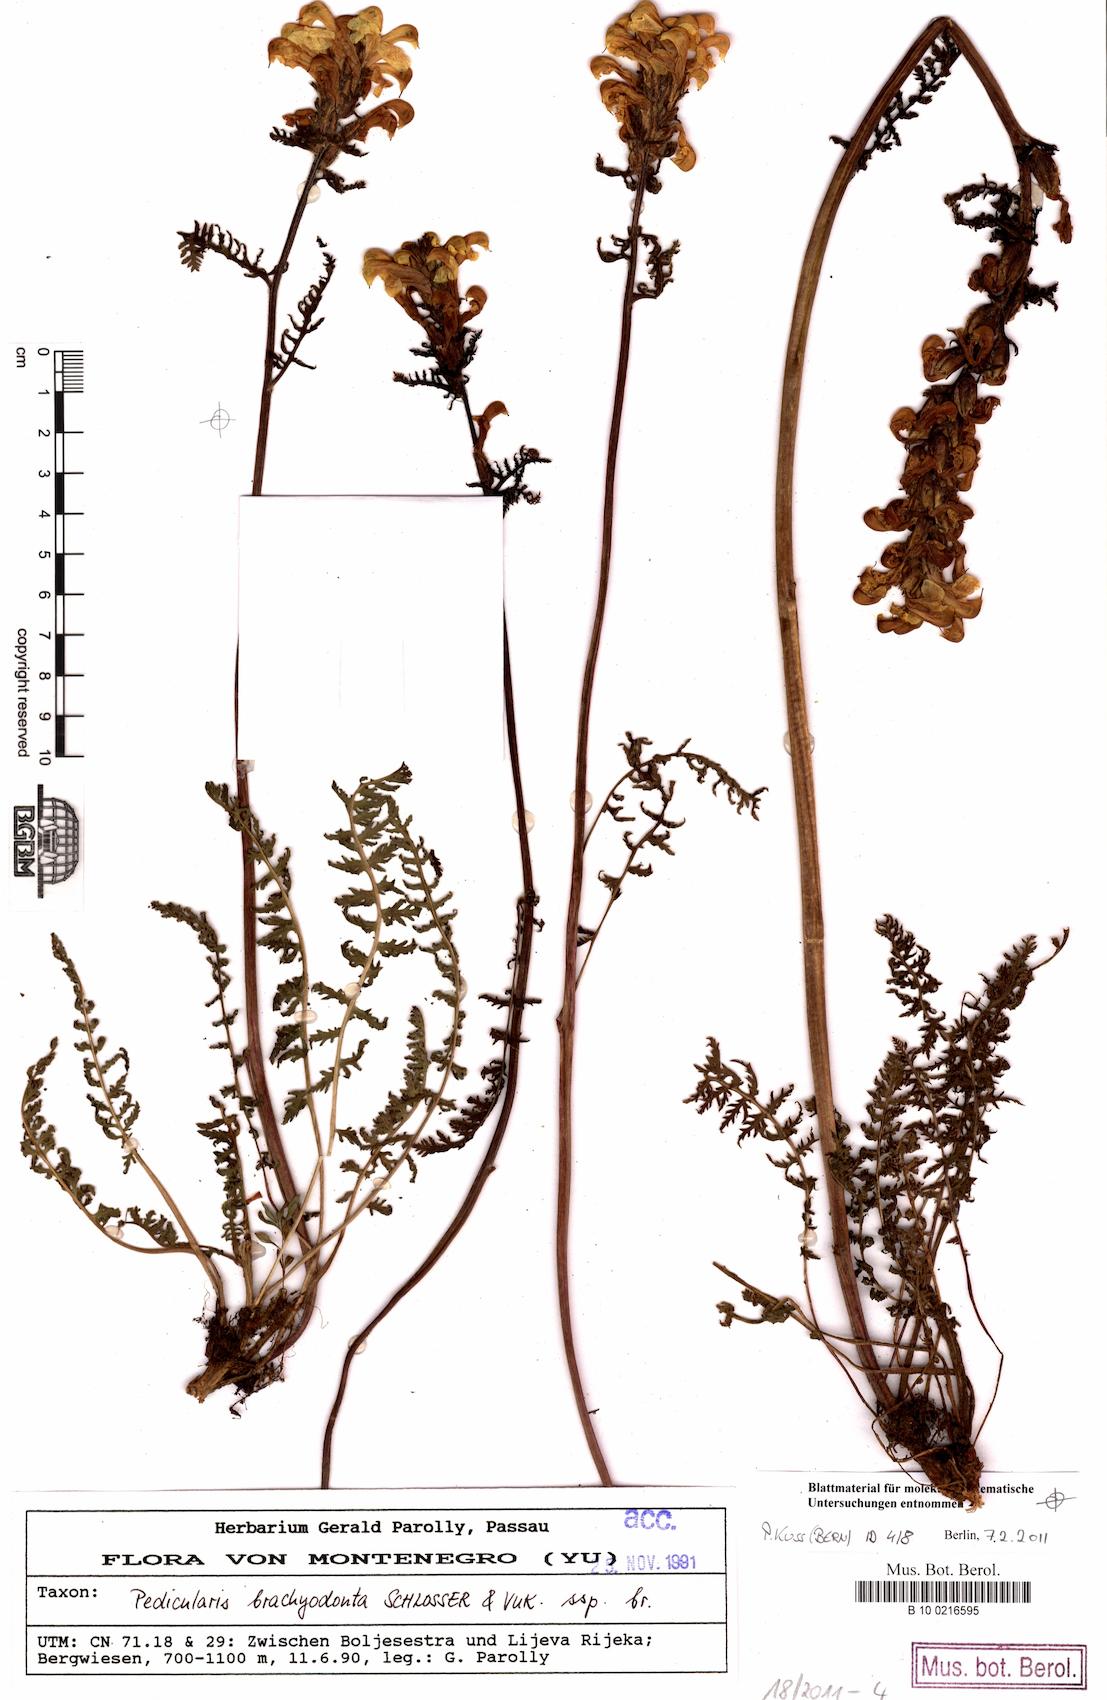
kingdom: Plantae
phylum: Tracheophyta
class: Magnoliopsida
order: Lamiales
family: Orobanchaceae
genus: Pedicularis
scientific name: Pedicularis brachyodonta
